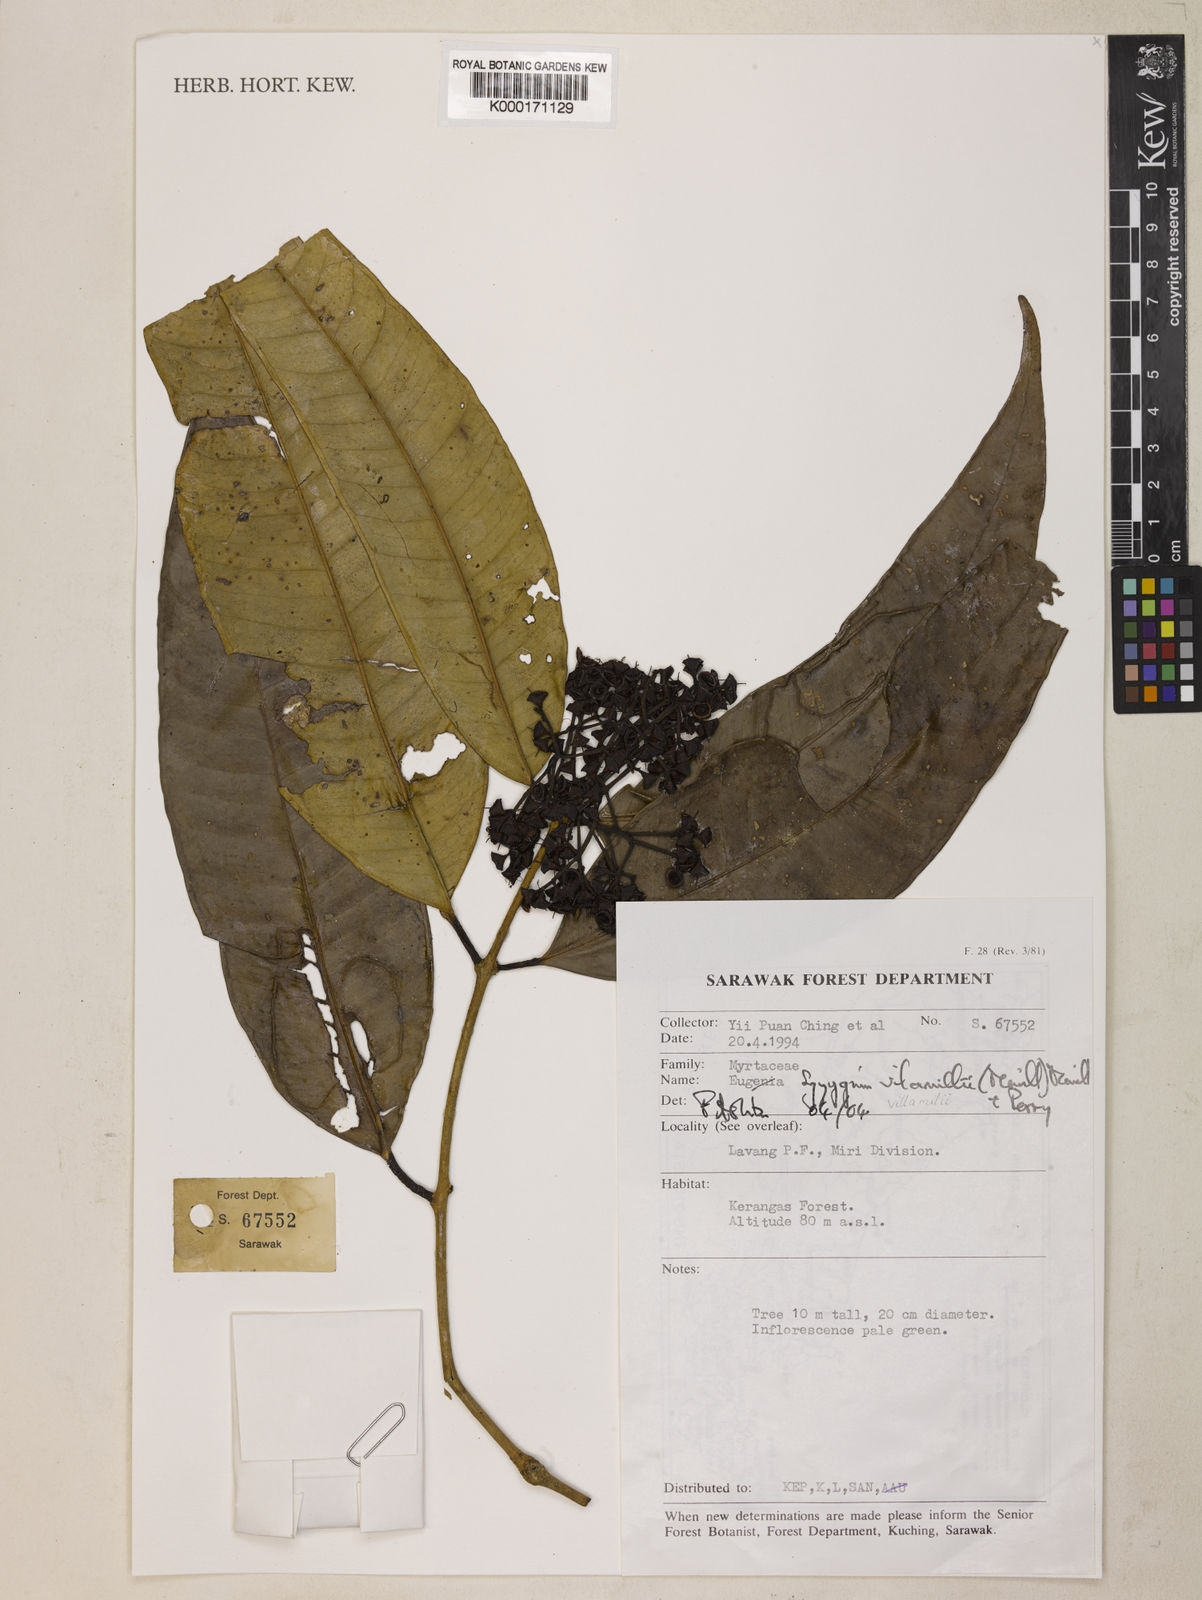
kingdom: Plantae
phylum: Tracheophyta
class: Magnoliopsida
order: Myrtales
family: Myrtaceae
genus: Syzygium
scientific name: Syzygium villamilii
